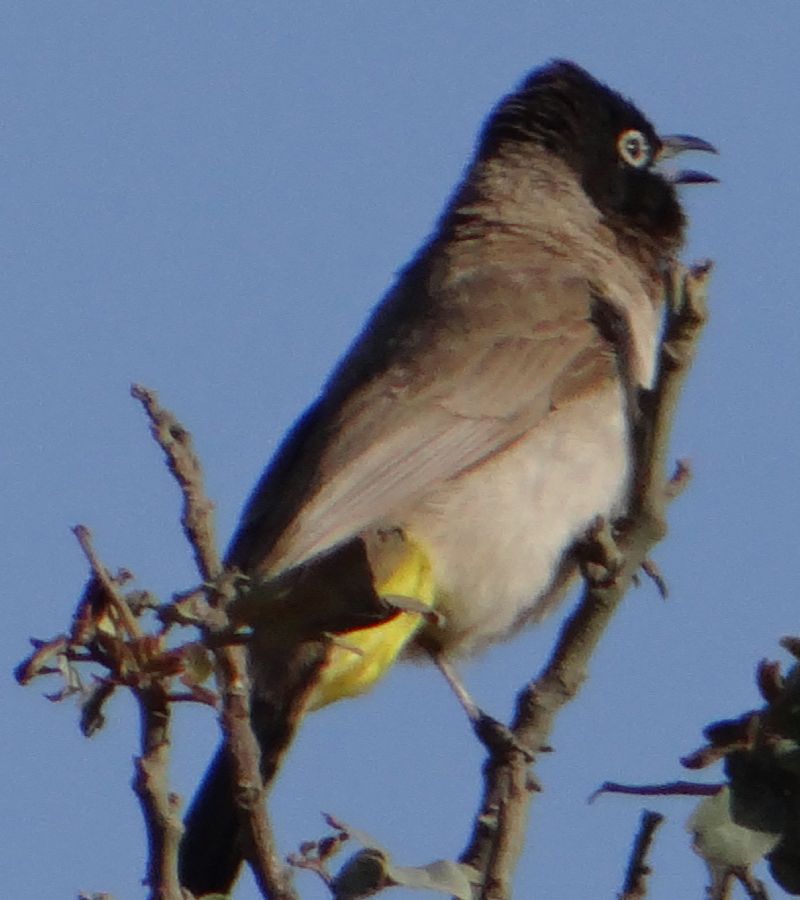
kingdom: Animalia
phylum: Chordata
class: Aves
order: Passeriformes
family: Pycnonotidae
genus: Pycnonotus
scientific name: Pycnonotus xanthopygos
